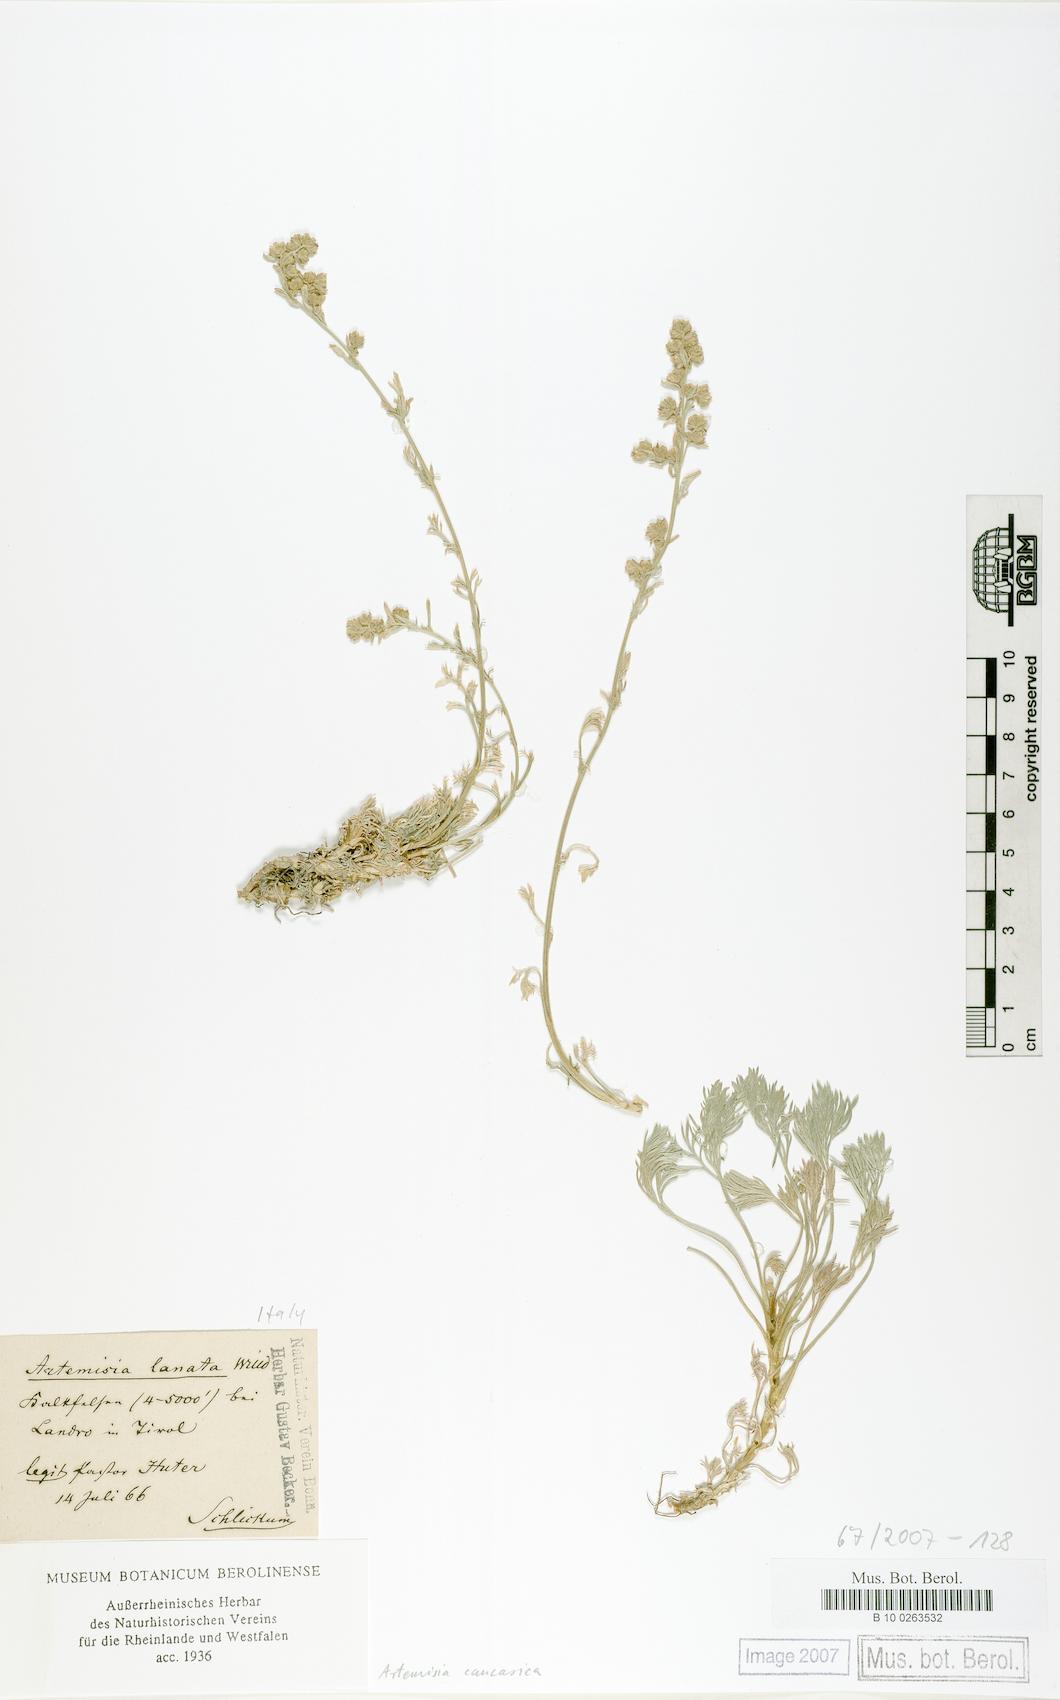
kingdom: Plantae
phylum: Tracheophyta
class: Magnoliopsida
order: Asterales
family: Asteraceae
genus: Artemisia
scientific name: Artemisia alpina
